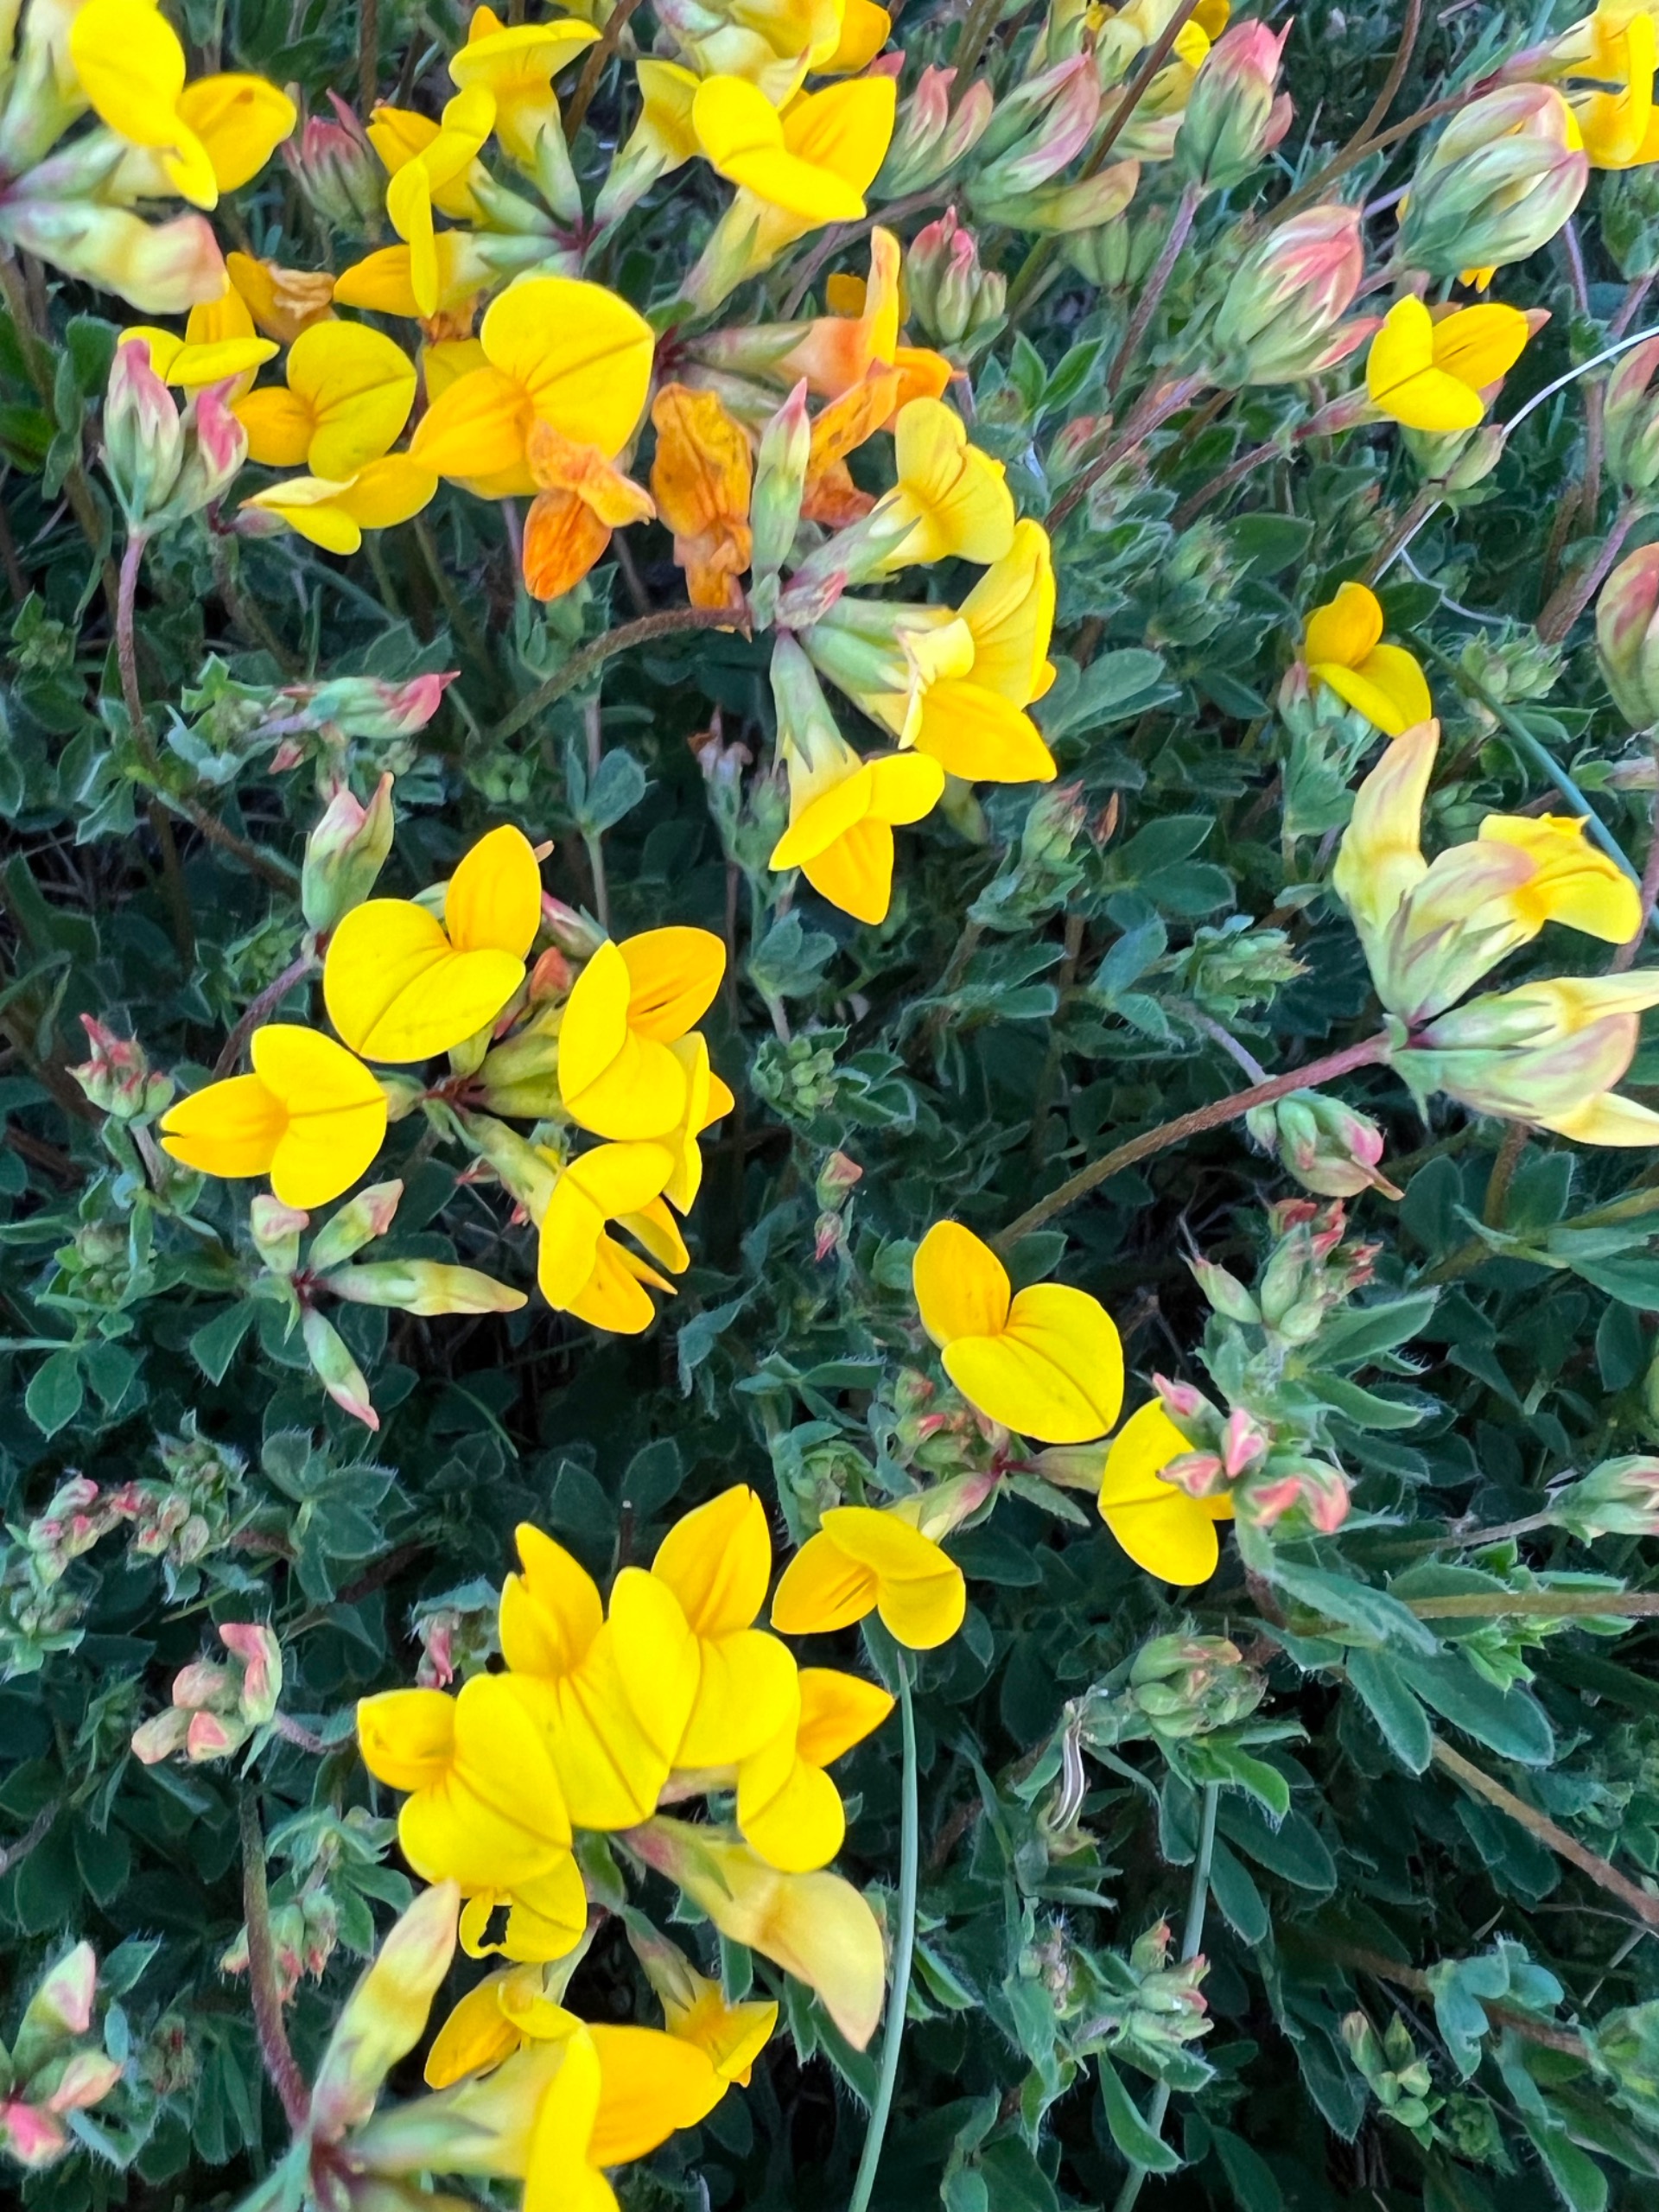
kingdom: Plantae
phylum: Tracheophyta
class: Magnoliopsida
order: Fabales
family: Fabaceae
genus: Lotus
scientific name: Lotus corniculatus
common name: Almindelig kællingetand
